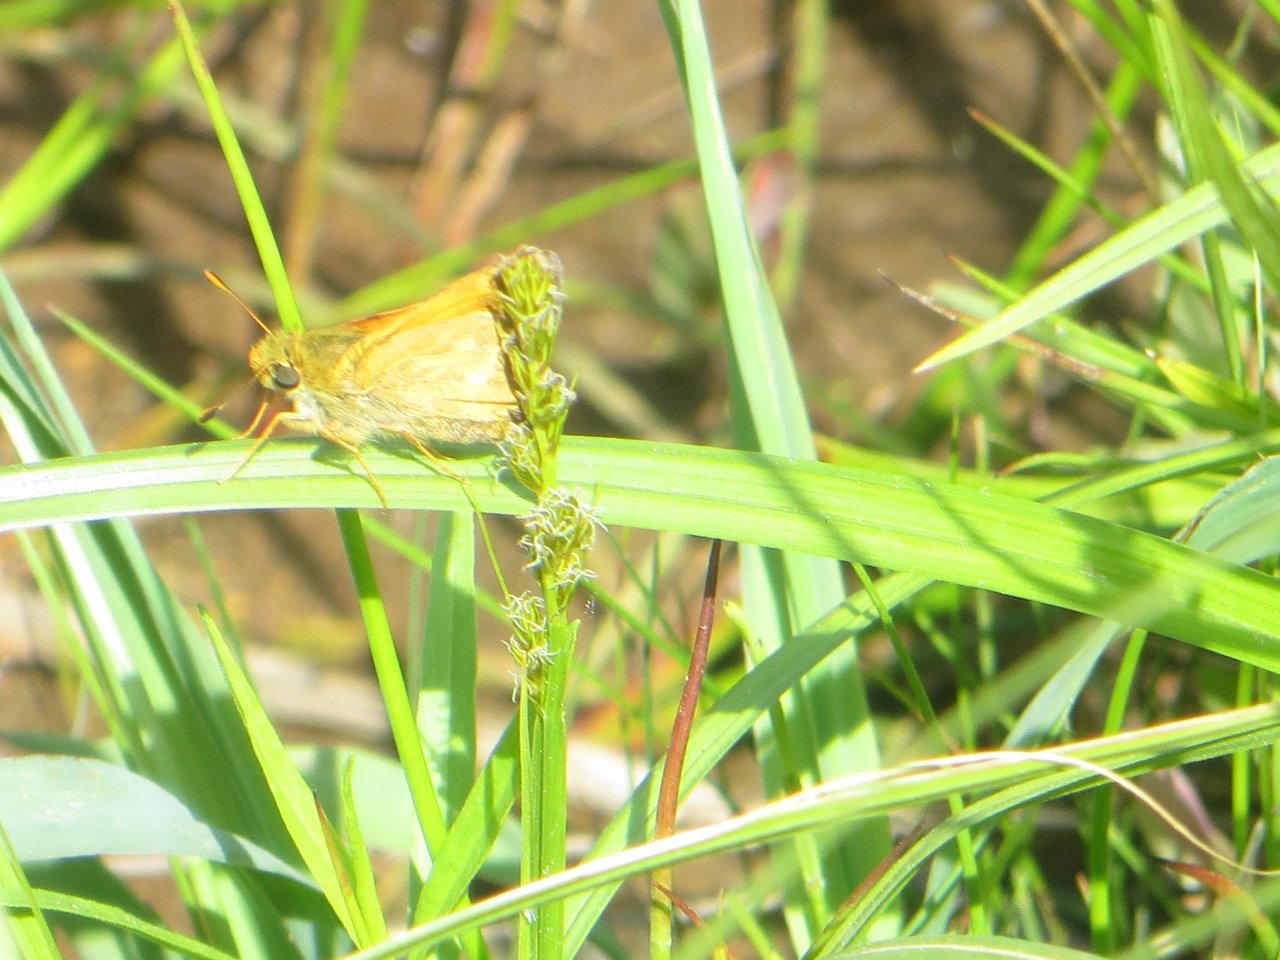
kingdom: Animalia
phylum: Arthropoda
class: Insecta
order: Lepidoptera
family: Hesperiidae
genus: Hesperia
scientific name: Hesperia sassacus
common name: Sassacus Skipper
